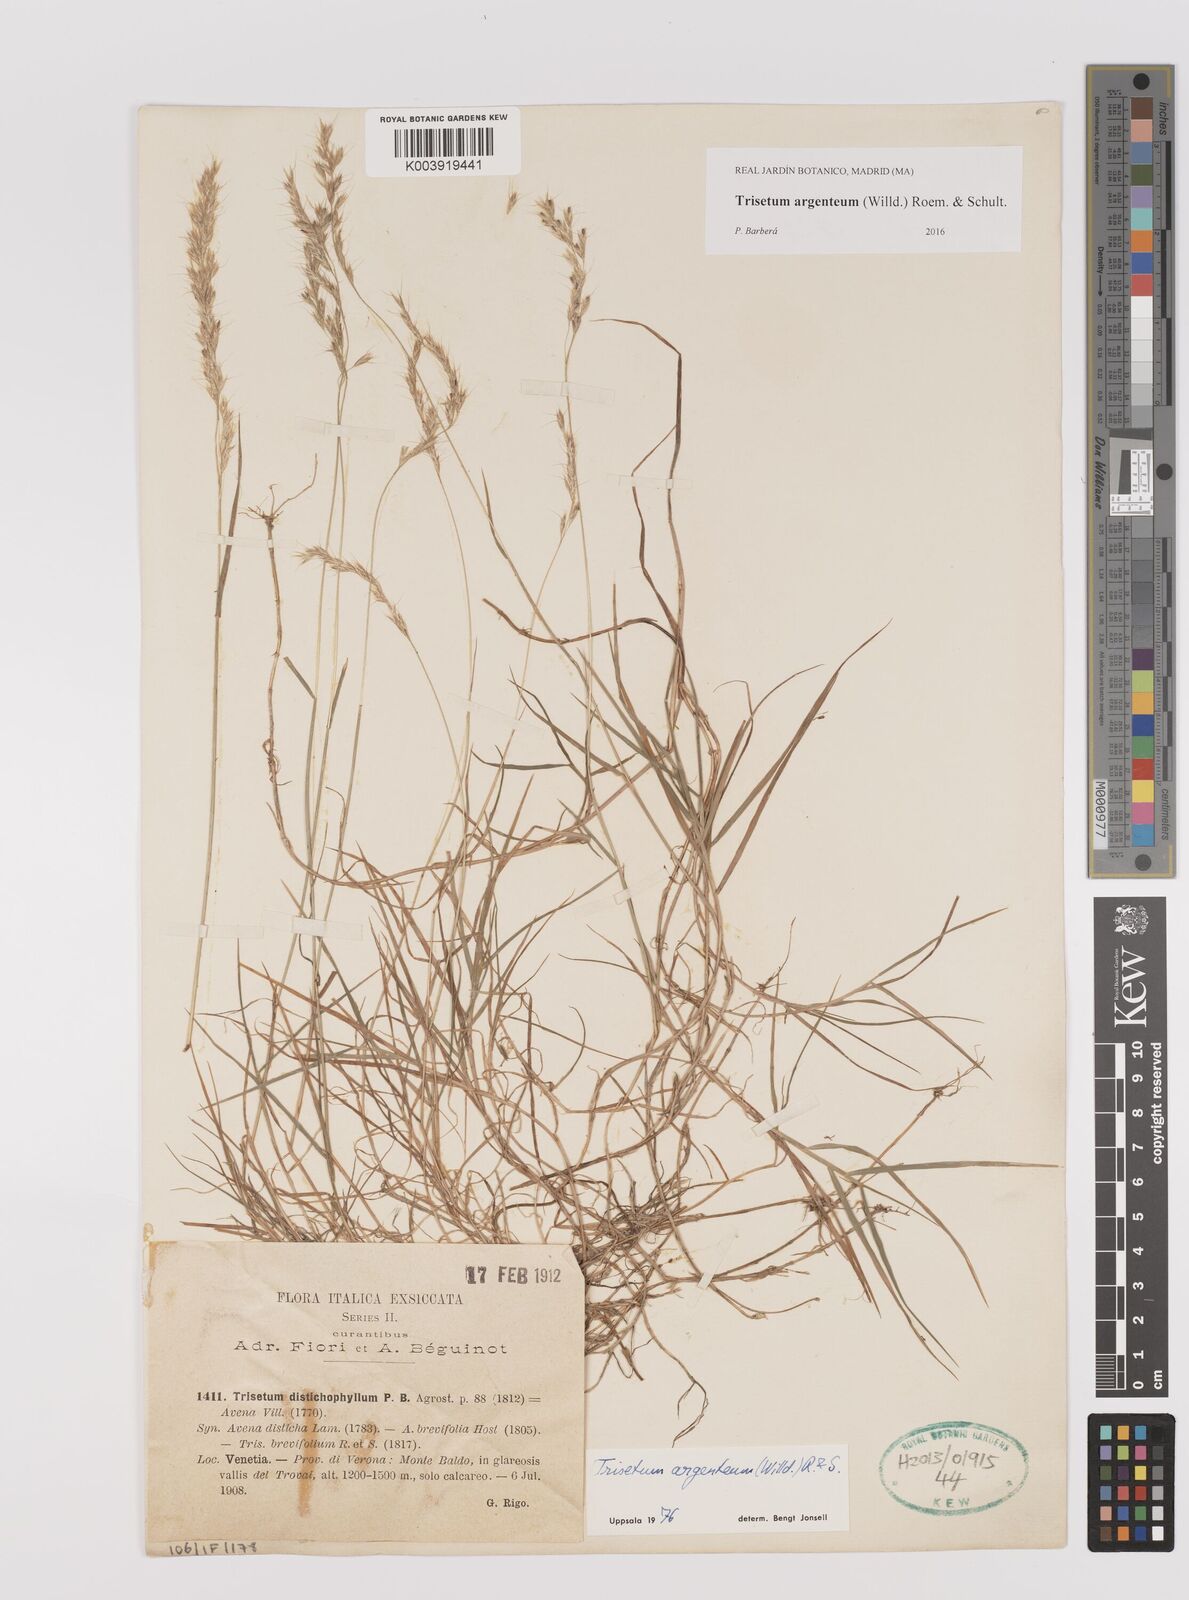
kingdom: Plantae
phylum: Tracheophyta
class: Liliopsida
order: Poales
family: Poaceae
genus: Trisetum
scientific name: Trisetum argenteum
